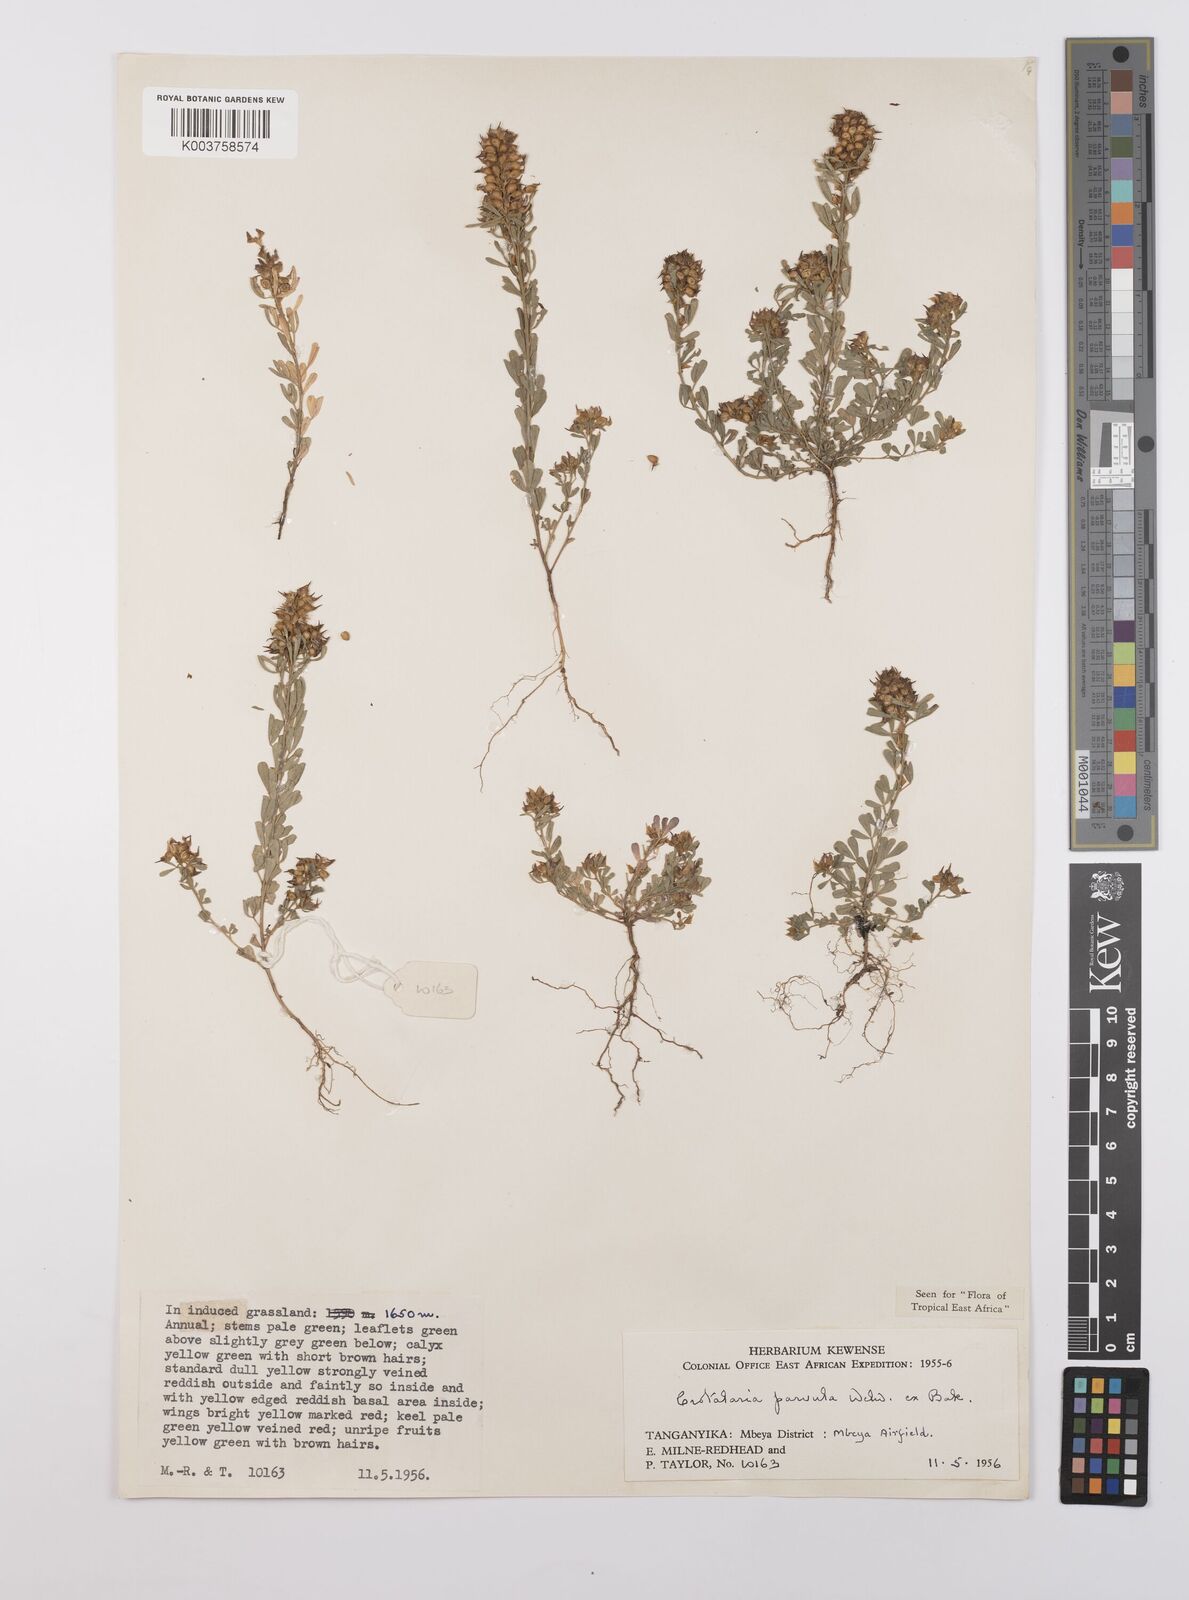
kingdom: Plantae
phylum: Tracheophyta
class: Magnoliopsida
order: Fabales
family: Fabaceae
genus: Crotalaria
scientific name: Crotalaria parvula
